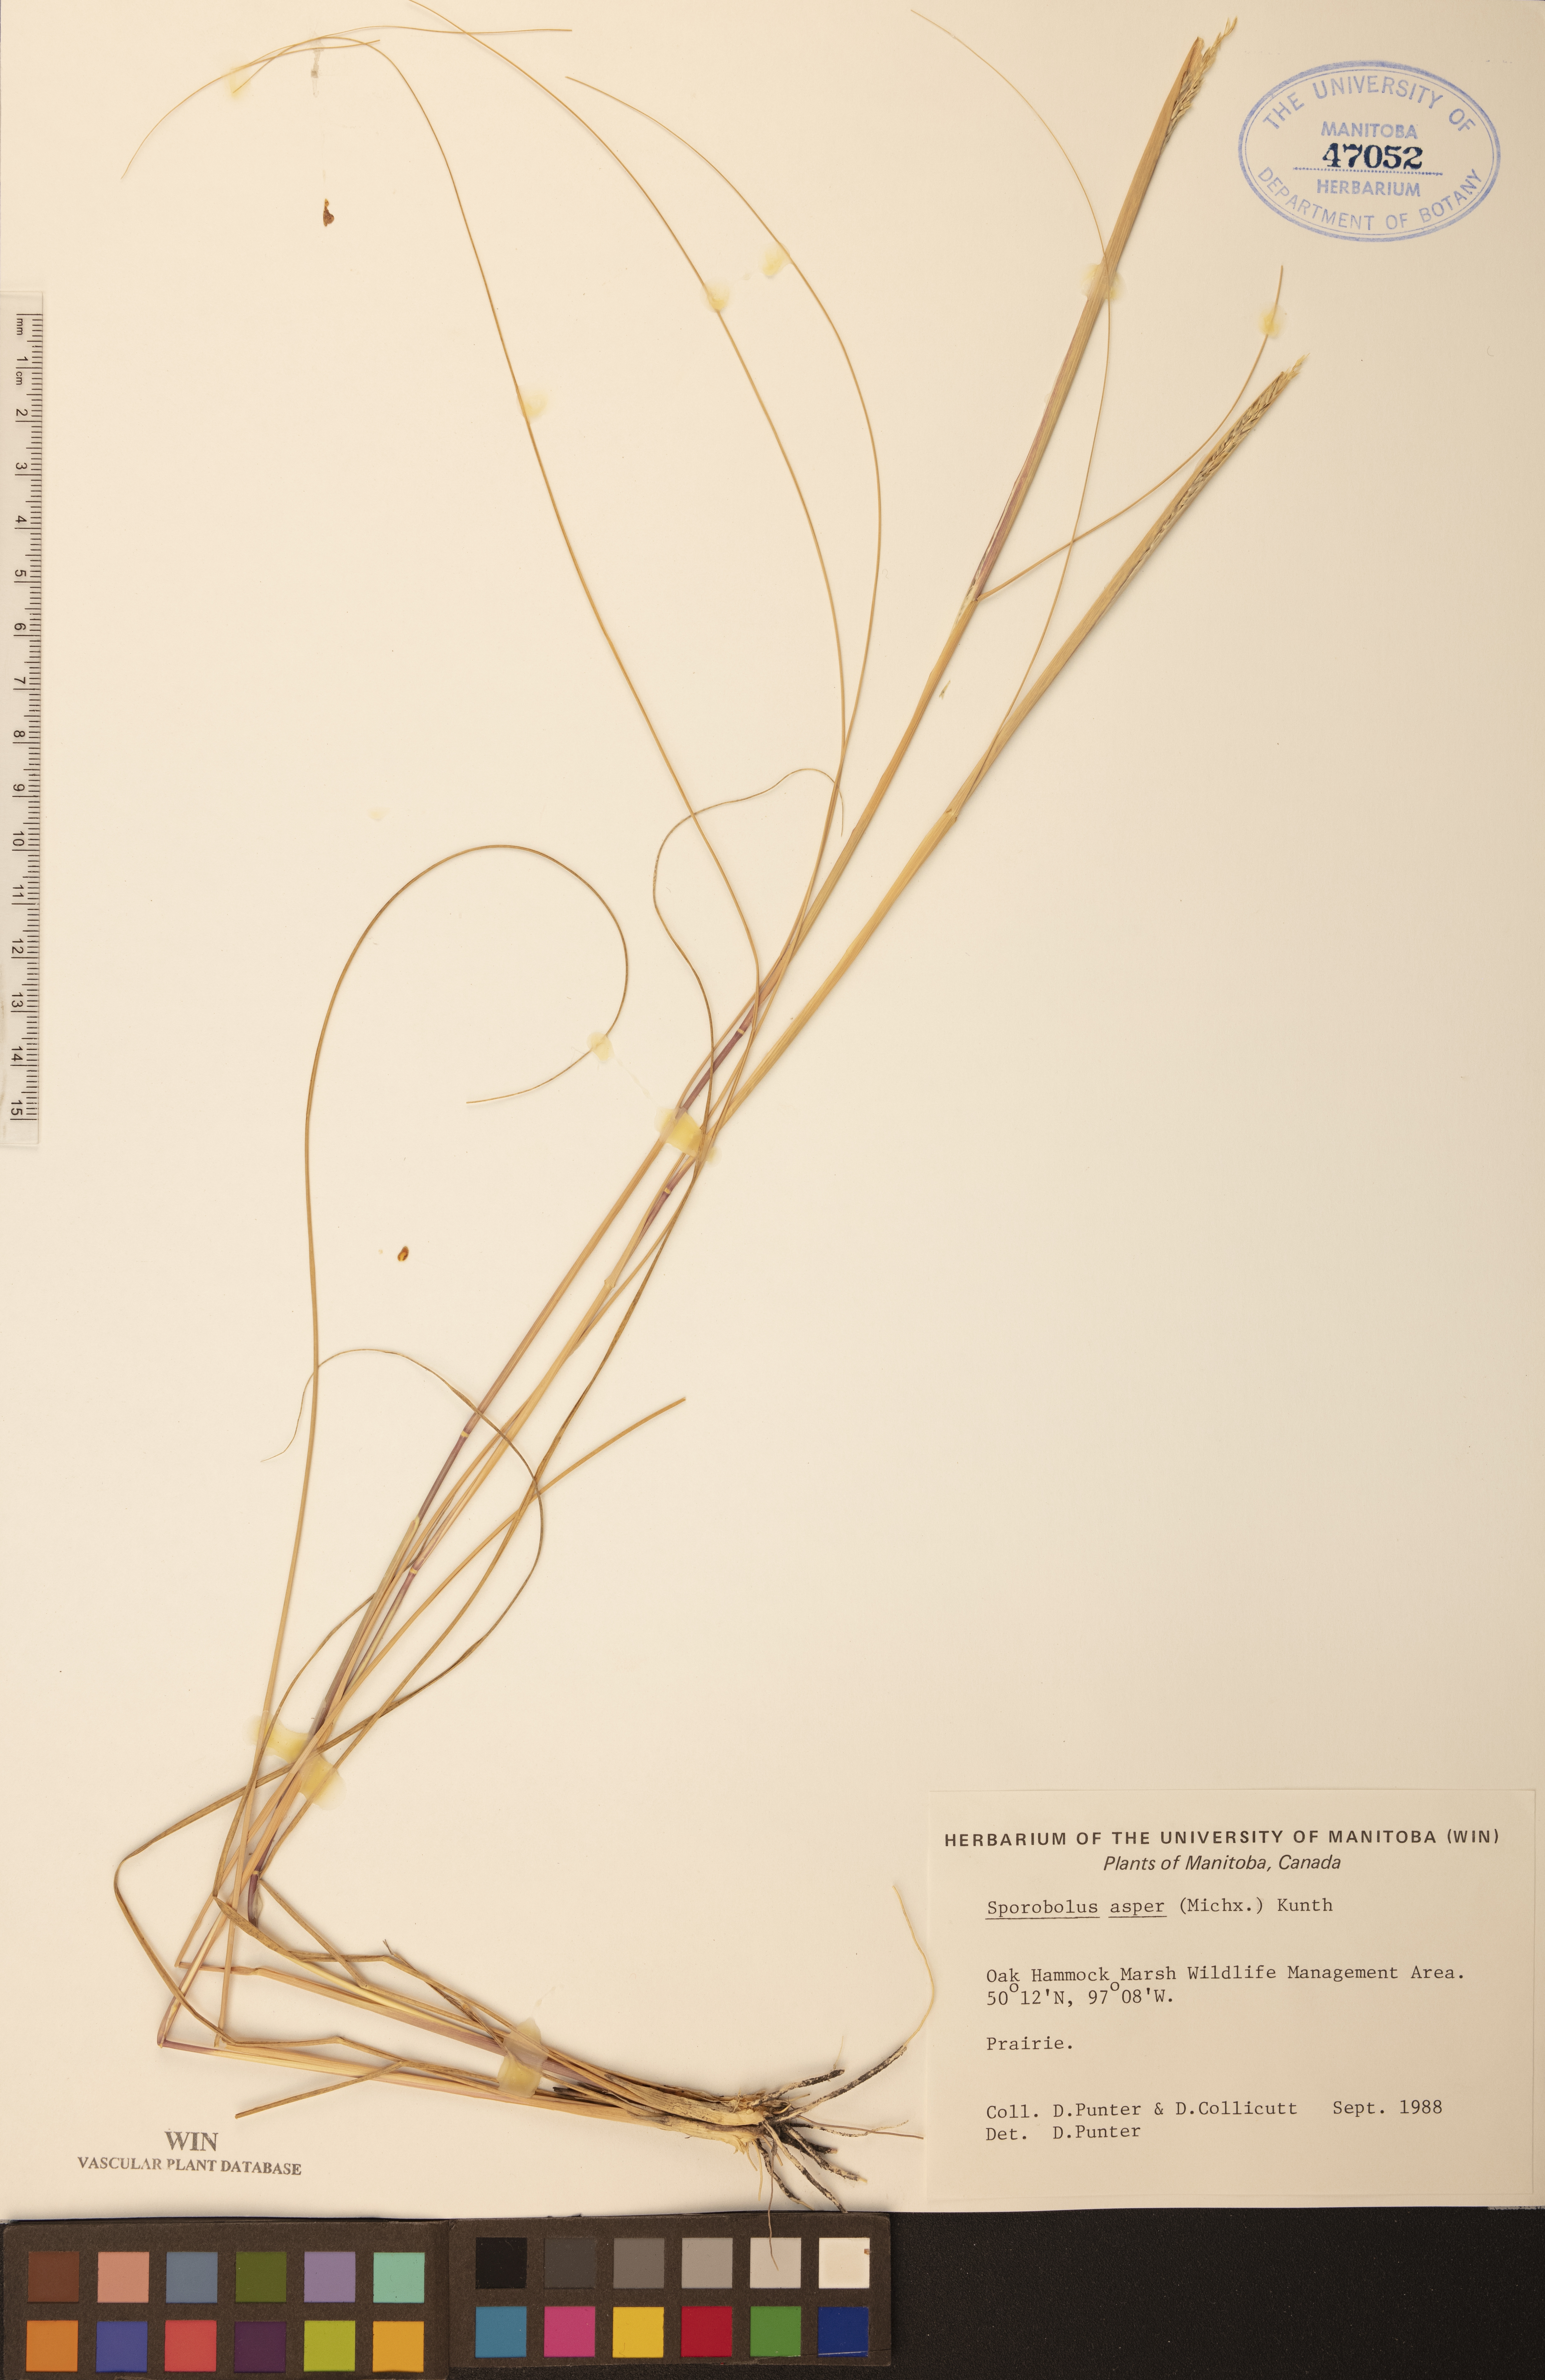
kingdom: Plantae
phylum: Tracheophyta
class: Liliopsida
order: Poales
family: Poaceae
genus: Sporobolus
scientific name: Sporobolus compositus
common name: Rough dropseed
